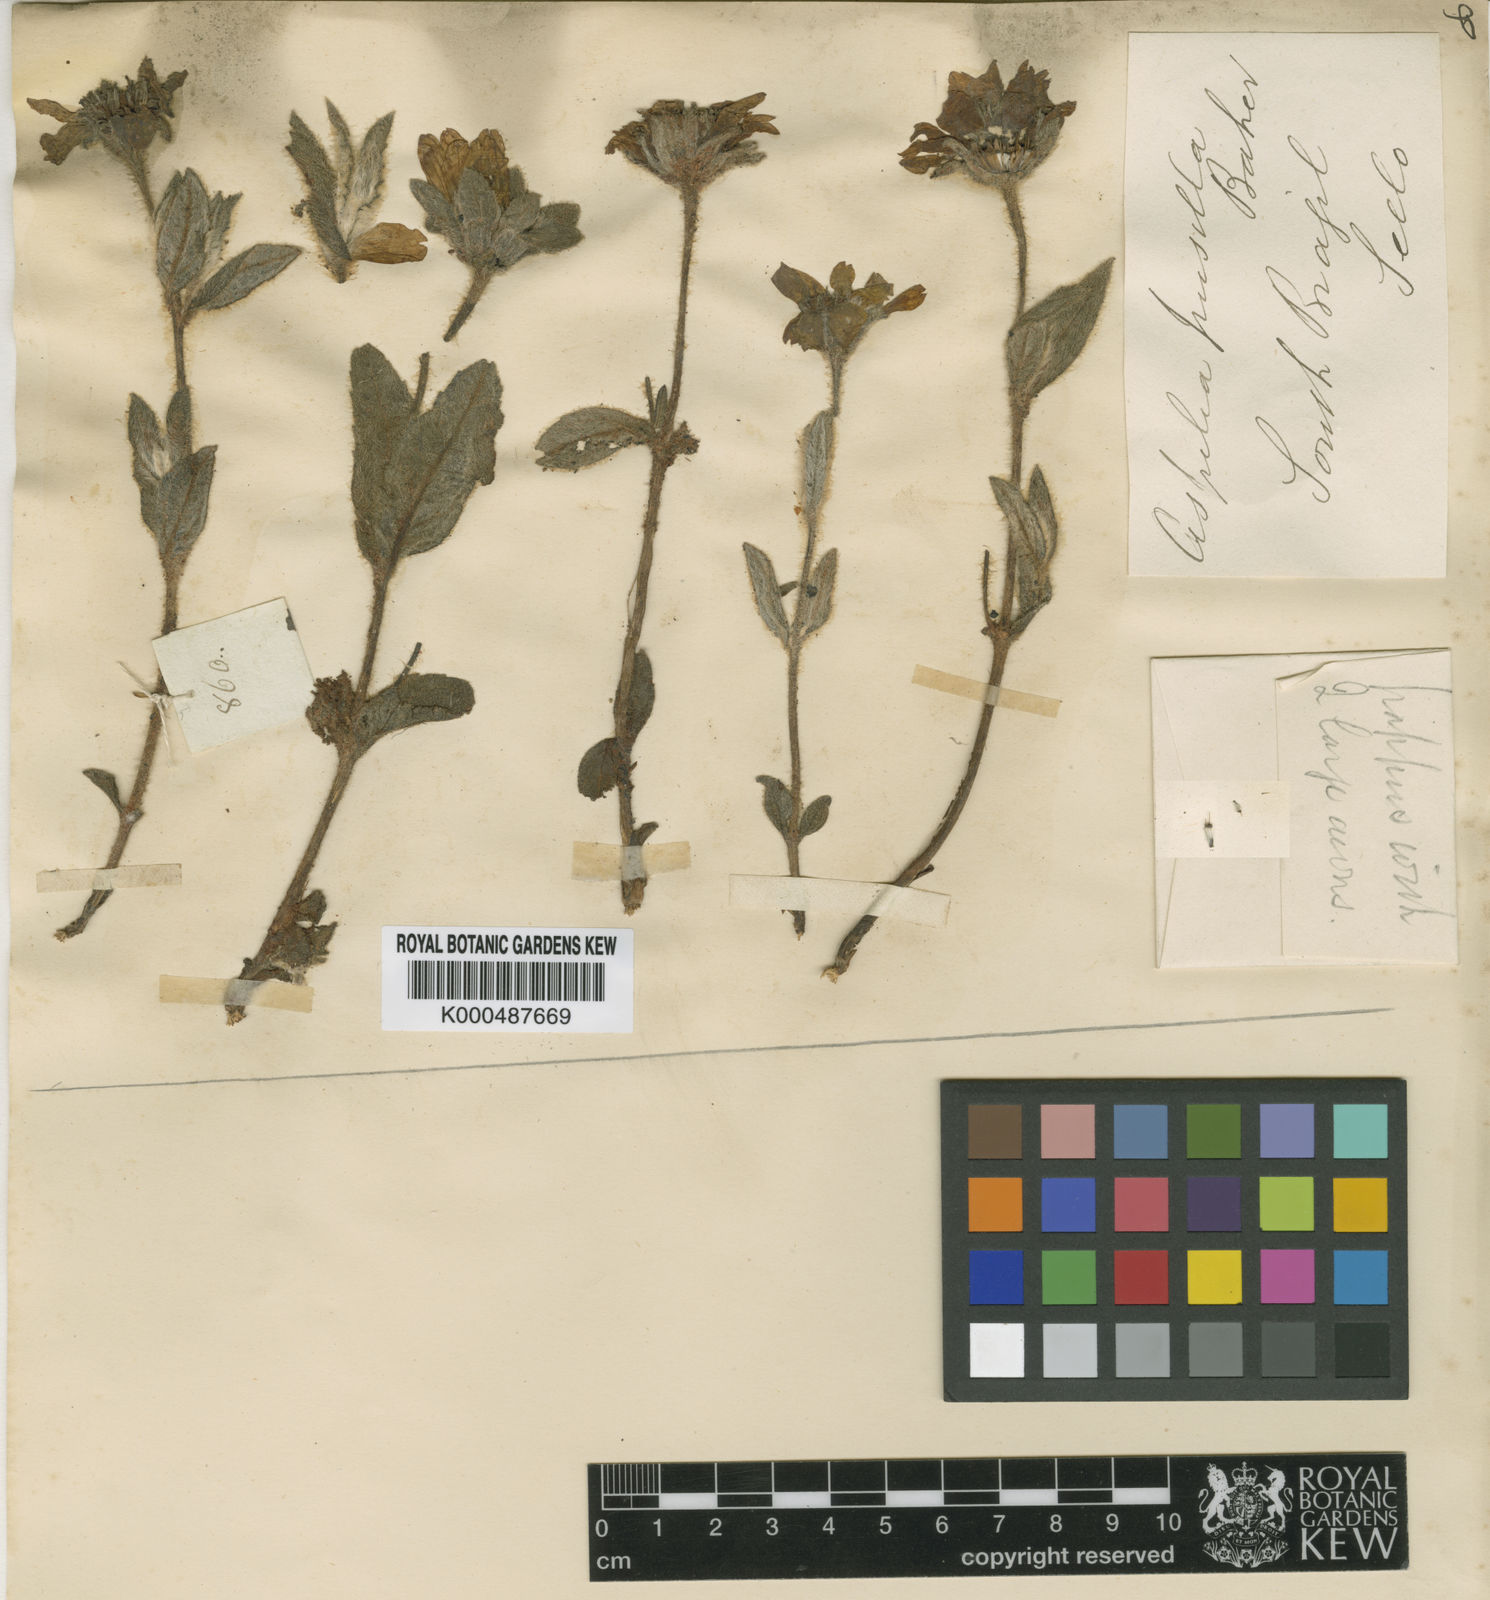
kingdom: Plantae
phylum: Tracheophyta
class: Magnoliopsida
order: Asterales
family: Asteraceae
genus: Wedelia
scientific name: Wedelia foliacea
